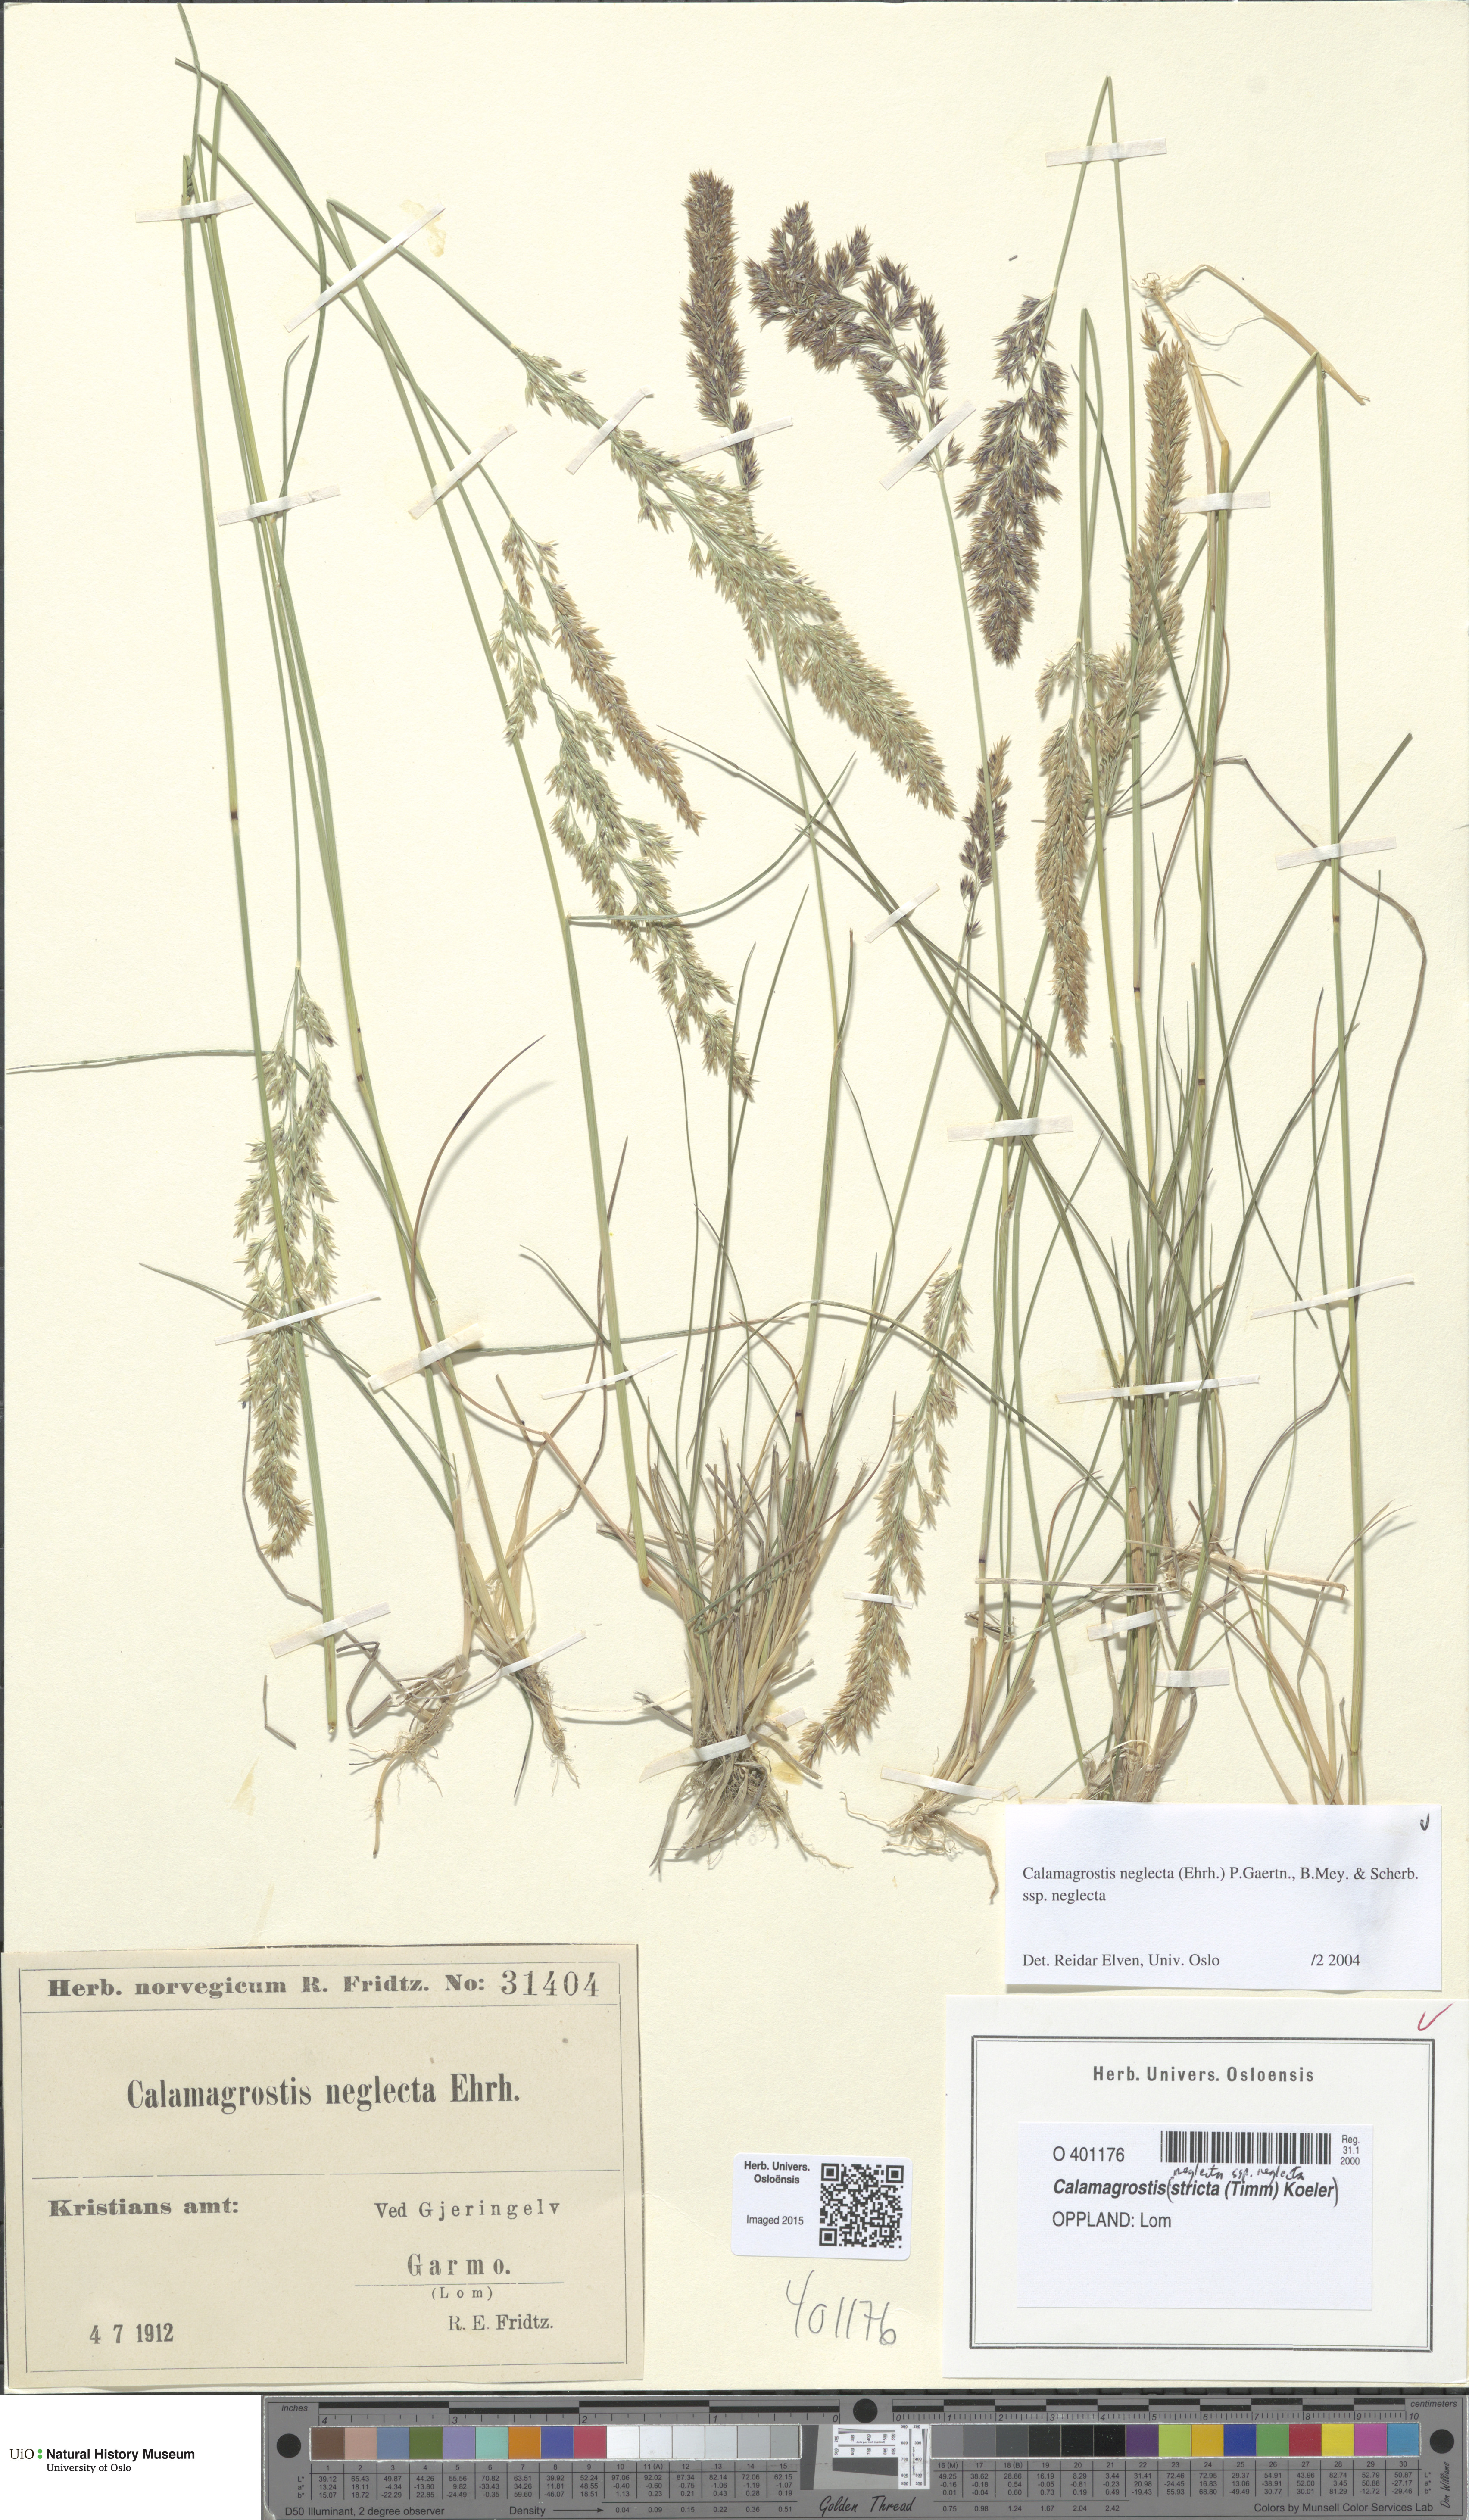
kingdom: Plantae
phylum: Tracheophyta
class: Liliopsida
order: Poales
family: Poaceae
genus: Achnatherum
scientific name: Achnatherum calamagrostis
